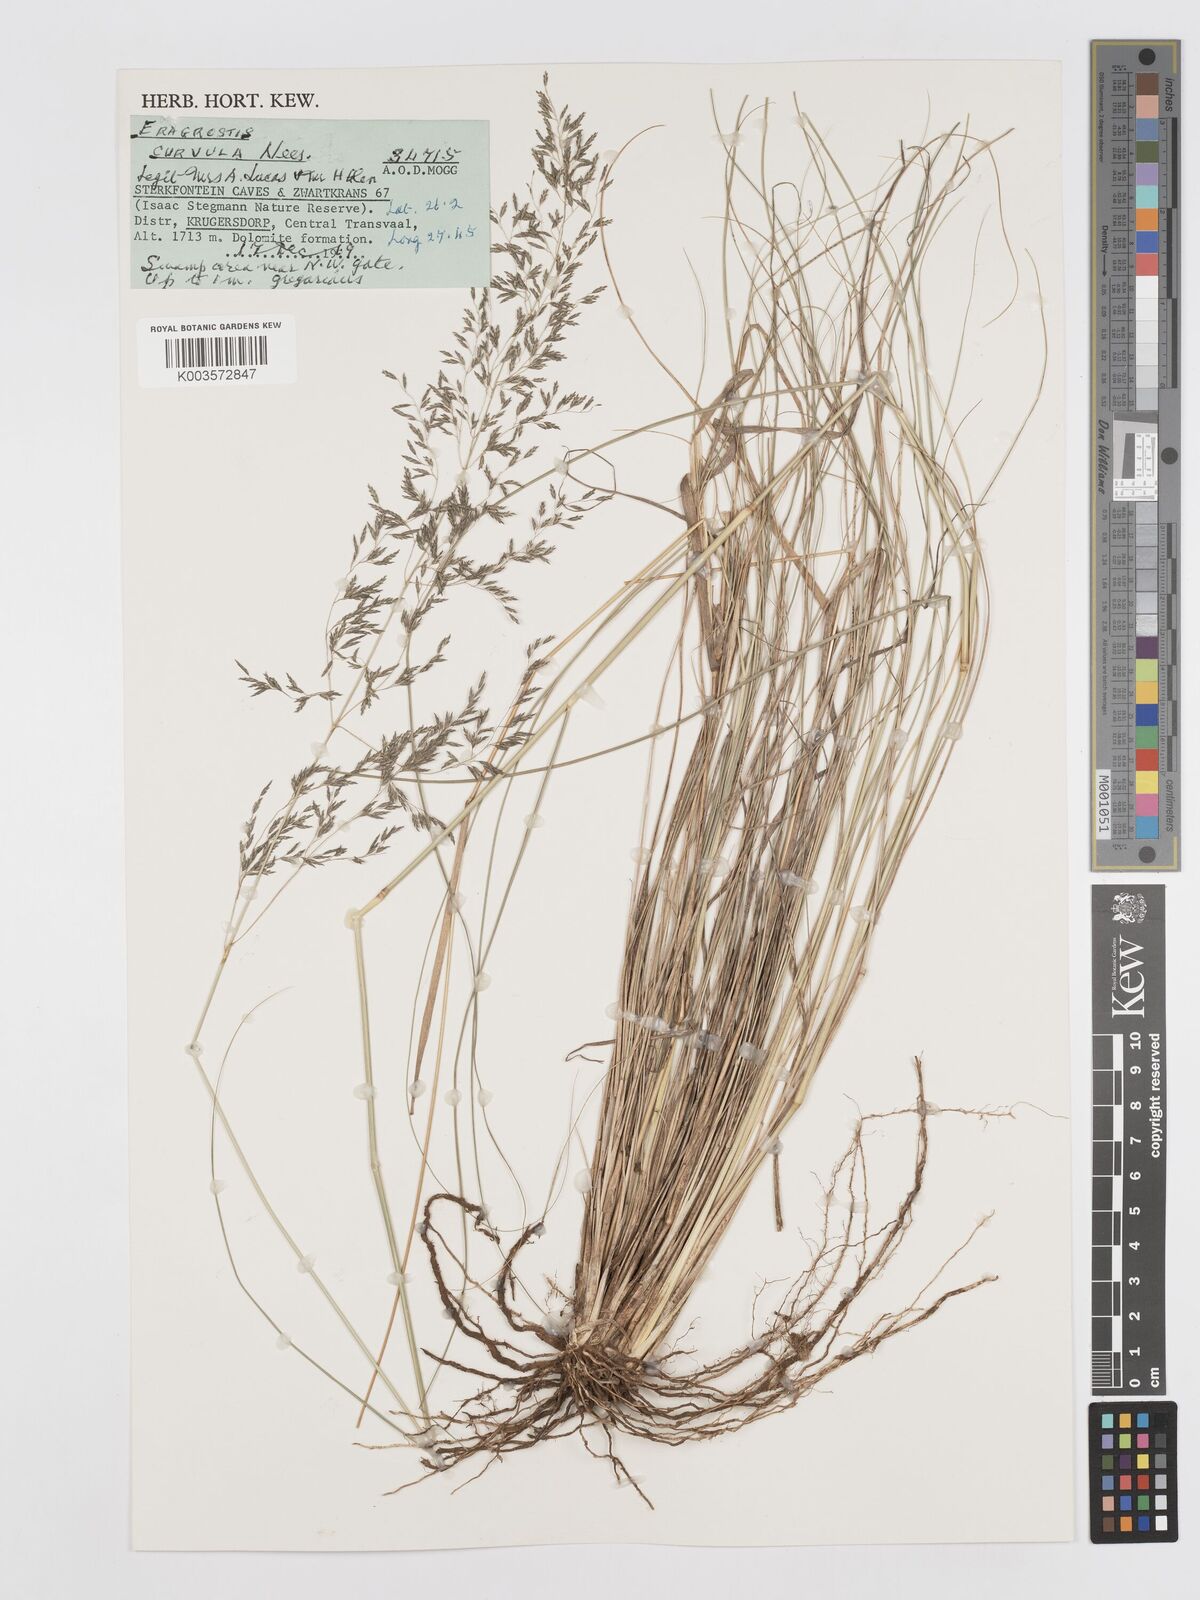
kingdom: Plantae
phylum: Tracheophyta
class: Liliopsida
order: Poales
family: Poaceae
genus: Eragrostis
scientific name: Eragrostis curvula
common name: African love-grass
